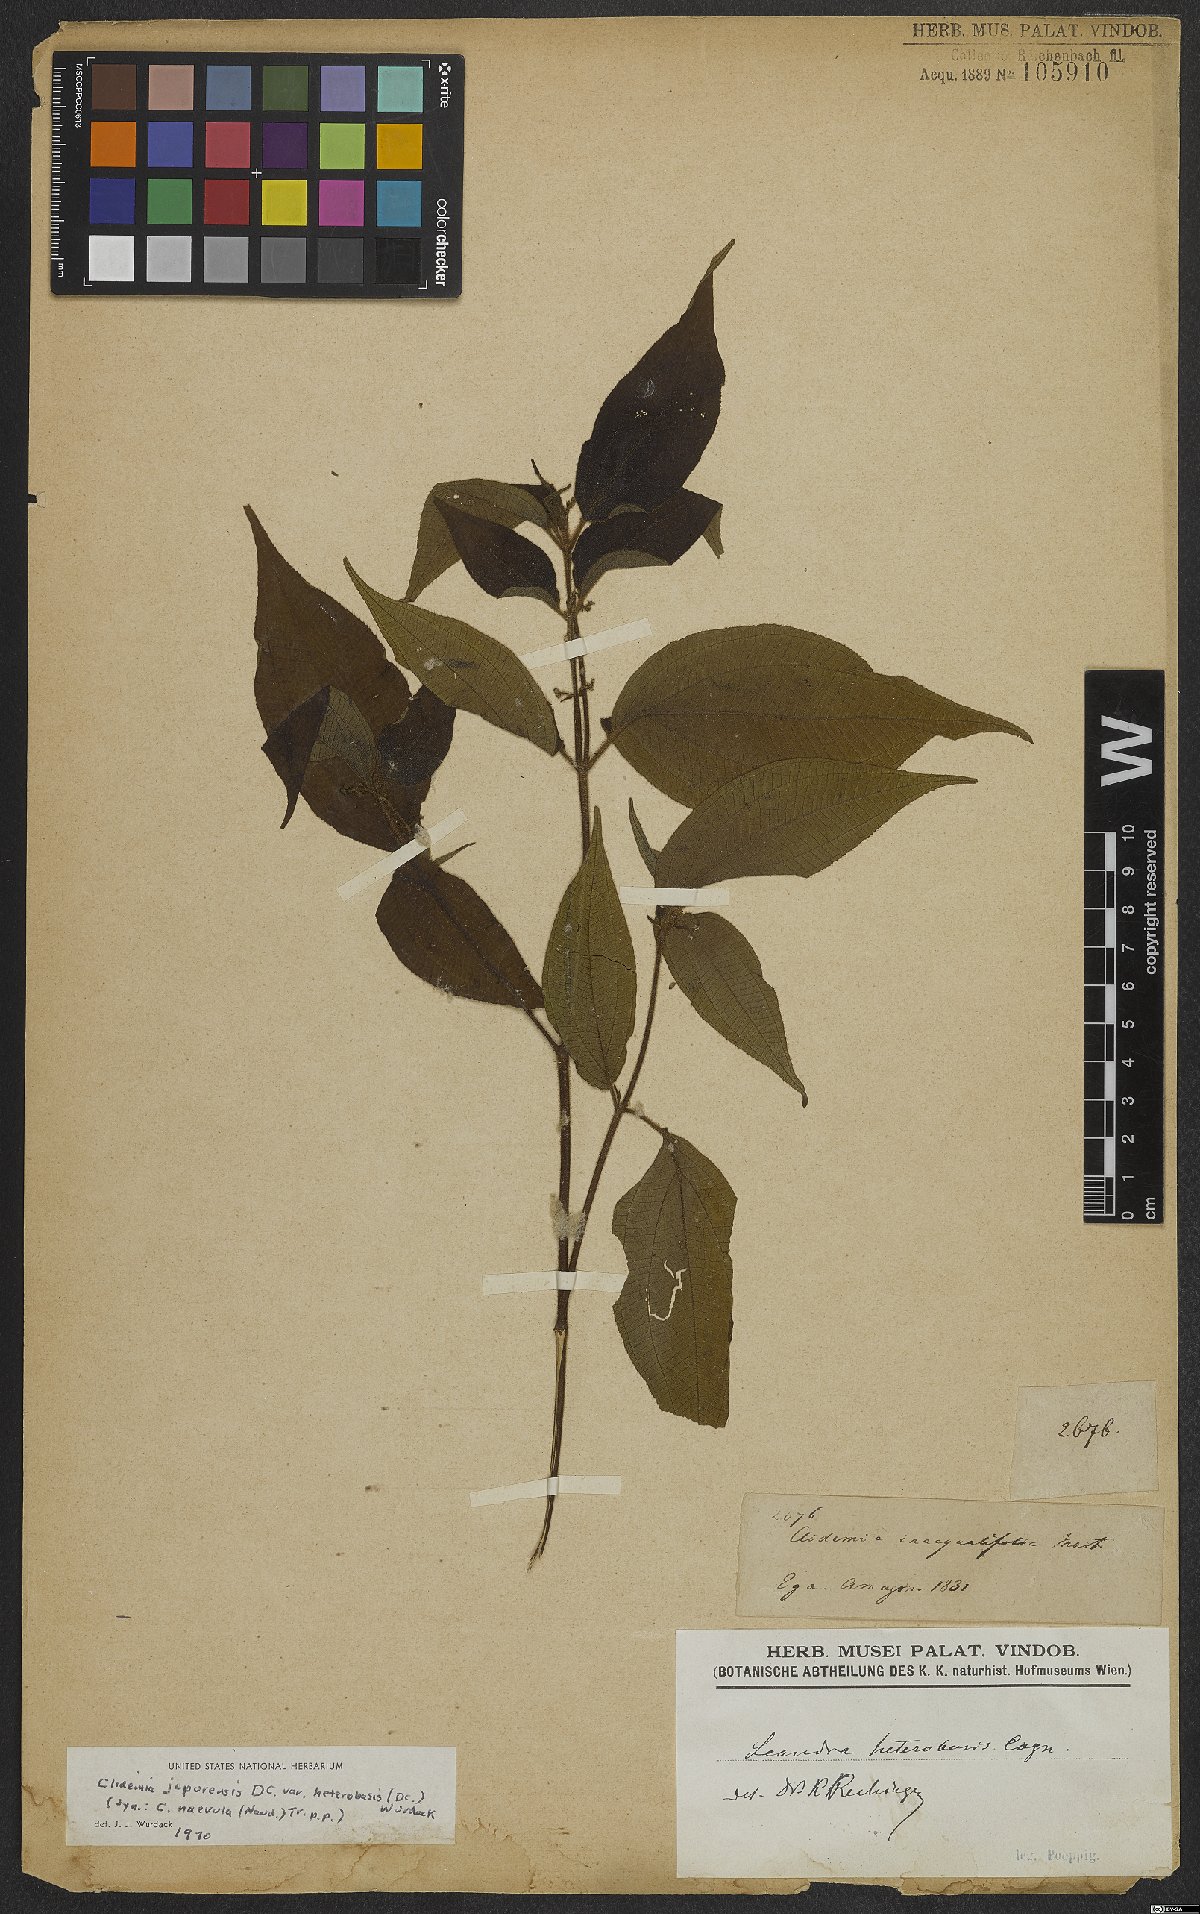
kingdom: Plantae
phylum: Tracheophyta
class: Magnoliopsida
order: Myrtales
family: Melastomataceae
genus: Miconia
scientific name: Miconia heteroclita
